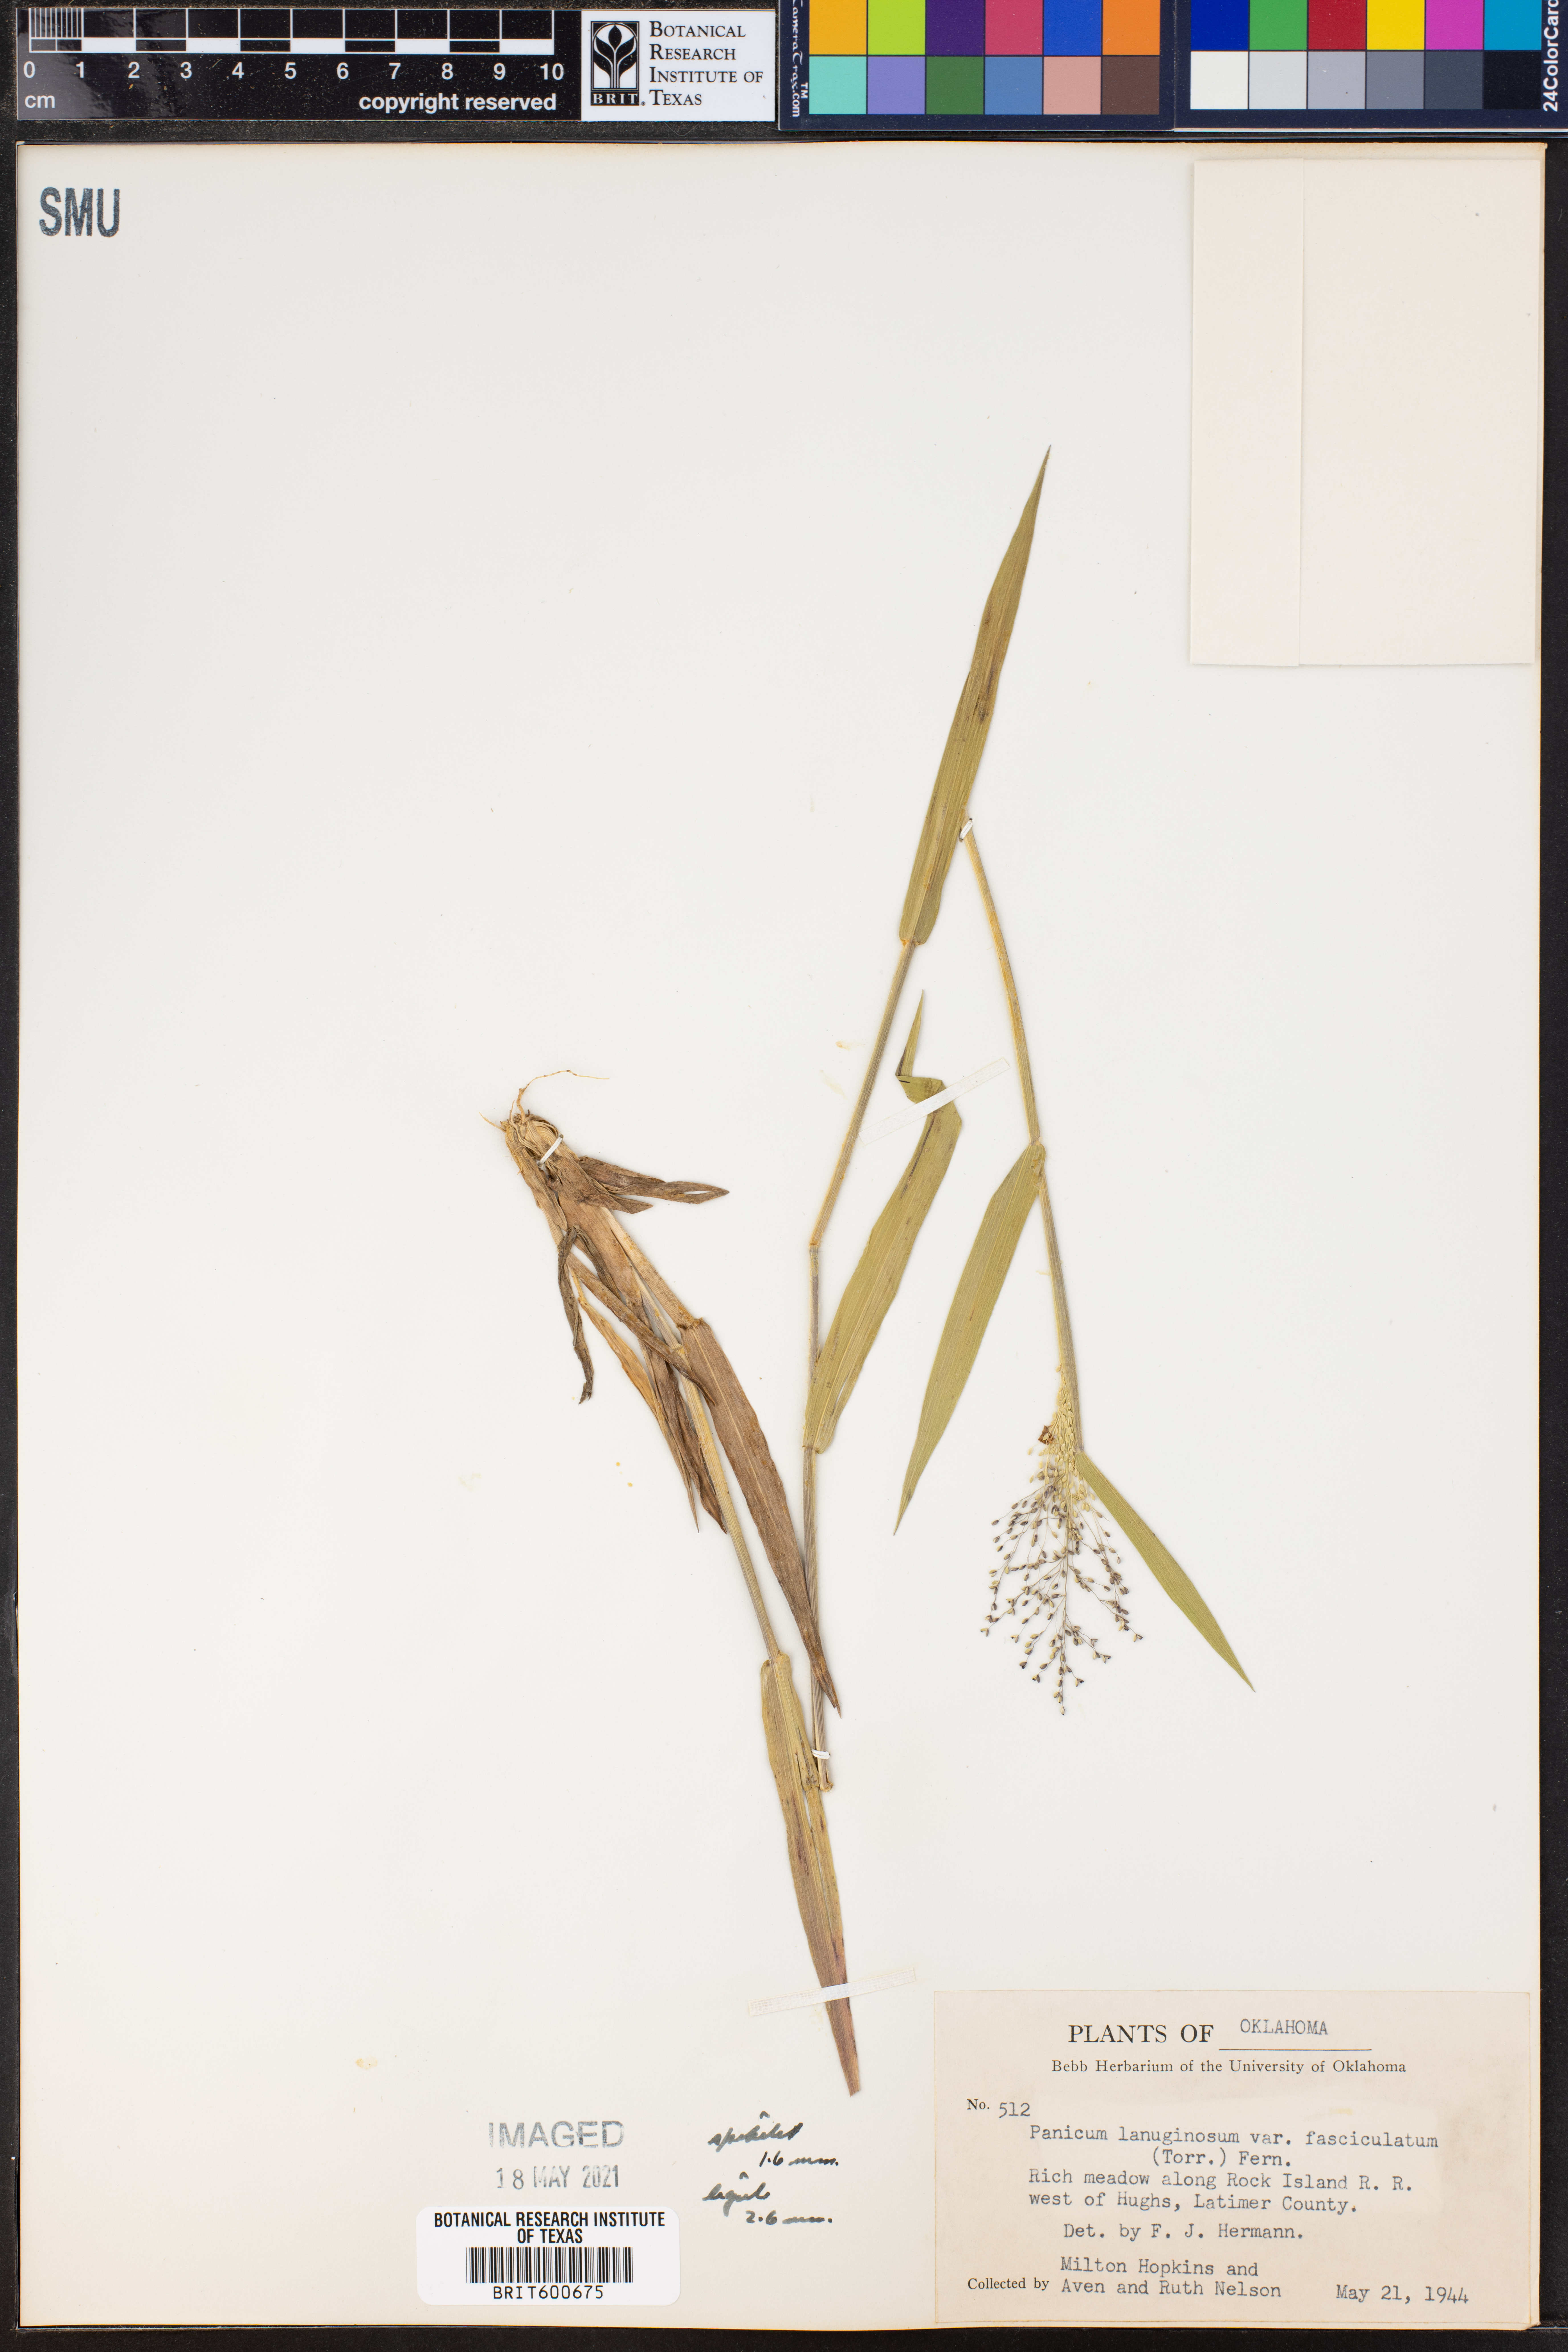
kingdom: Plantae
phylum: Tracheophyta
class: Liliopsida
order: Poales
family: Poaceae
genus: Dichanthelium
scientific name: Dichanthelium lanuginosum
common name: Woolly panicgrass
